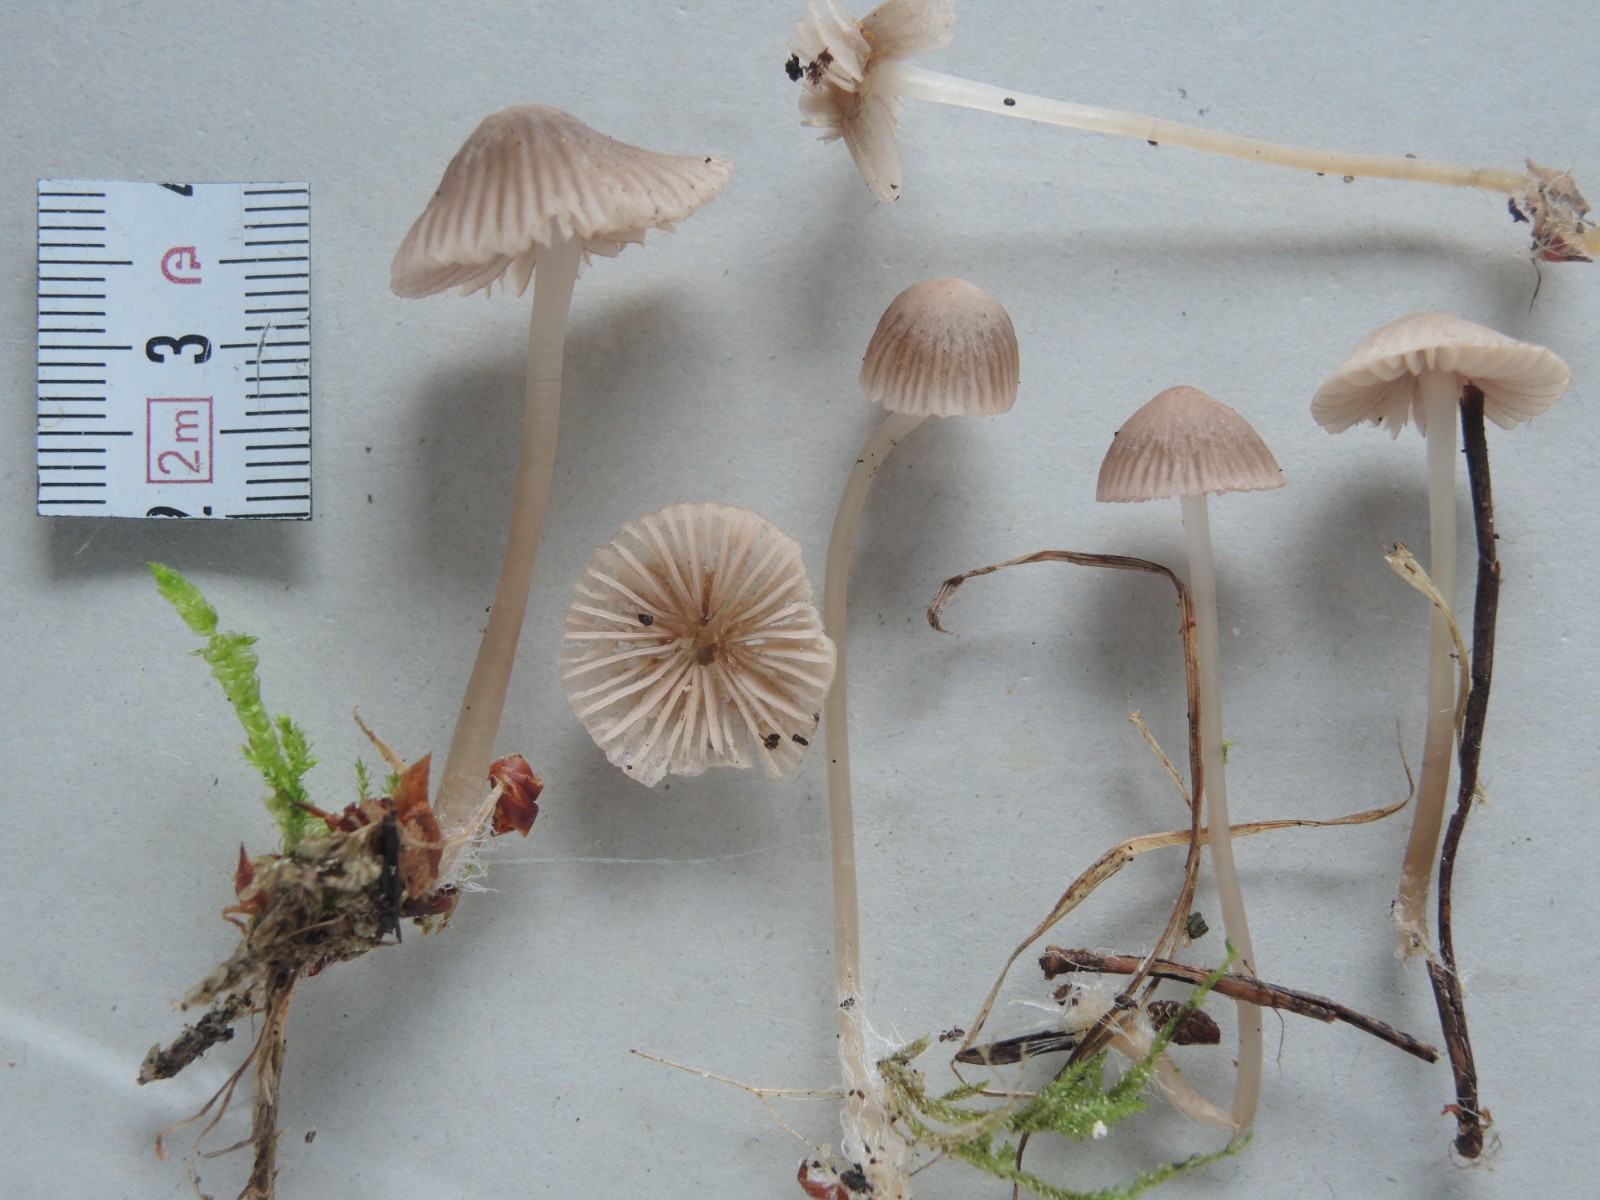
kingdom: Fungi
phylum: Basidiomycota
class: Agaricomycetes
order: Agaricales
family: Mycenaceae
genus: Mycena
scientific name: Mycena capillaripes
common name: nåle-huesvamp
